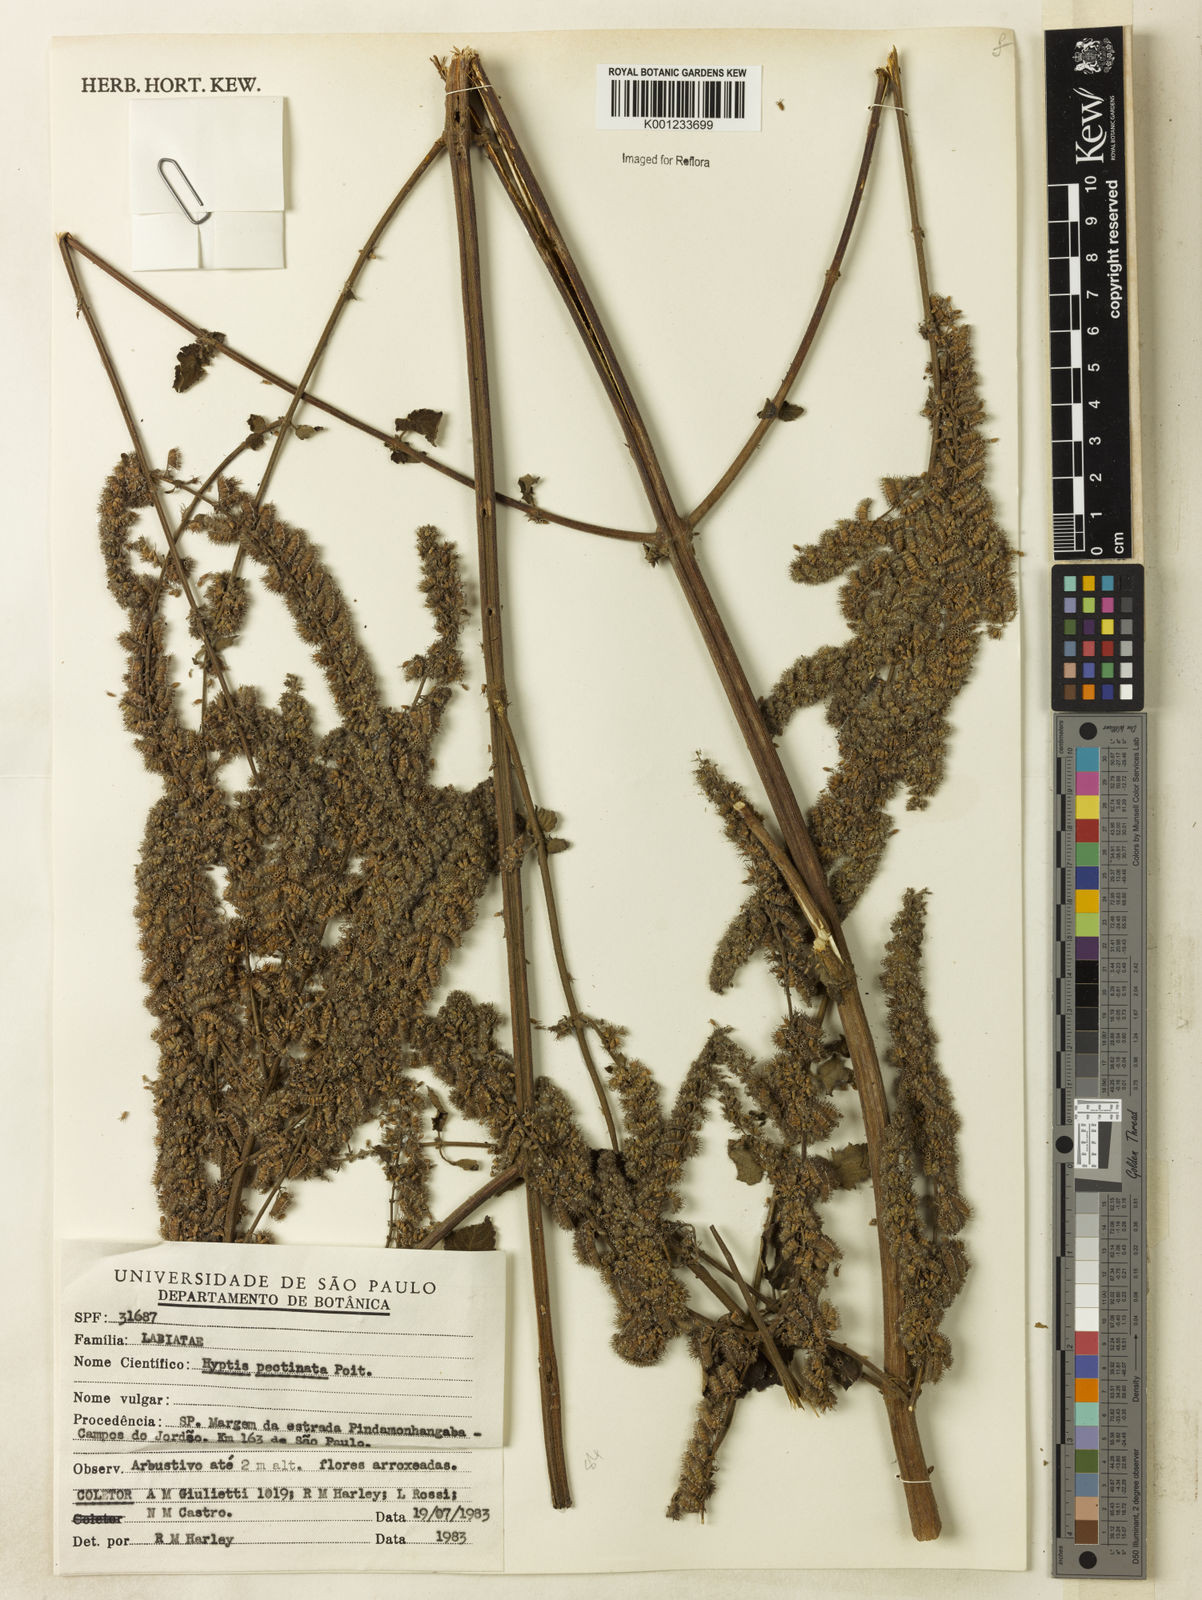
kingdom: Plantae
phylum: Tracheophyta
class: Magnoliopsida
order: Lamiales
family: Lamiaceae
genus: Mesosphaerum
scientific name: Mesosphaerum pectinatum
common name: Comb hyptis
